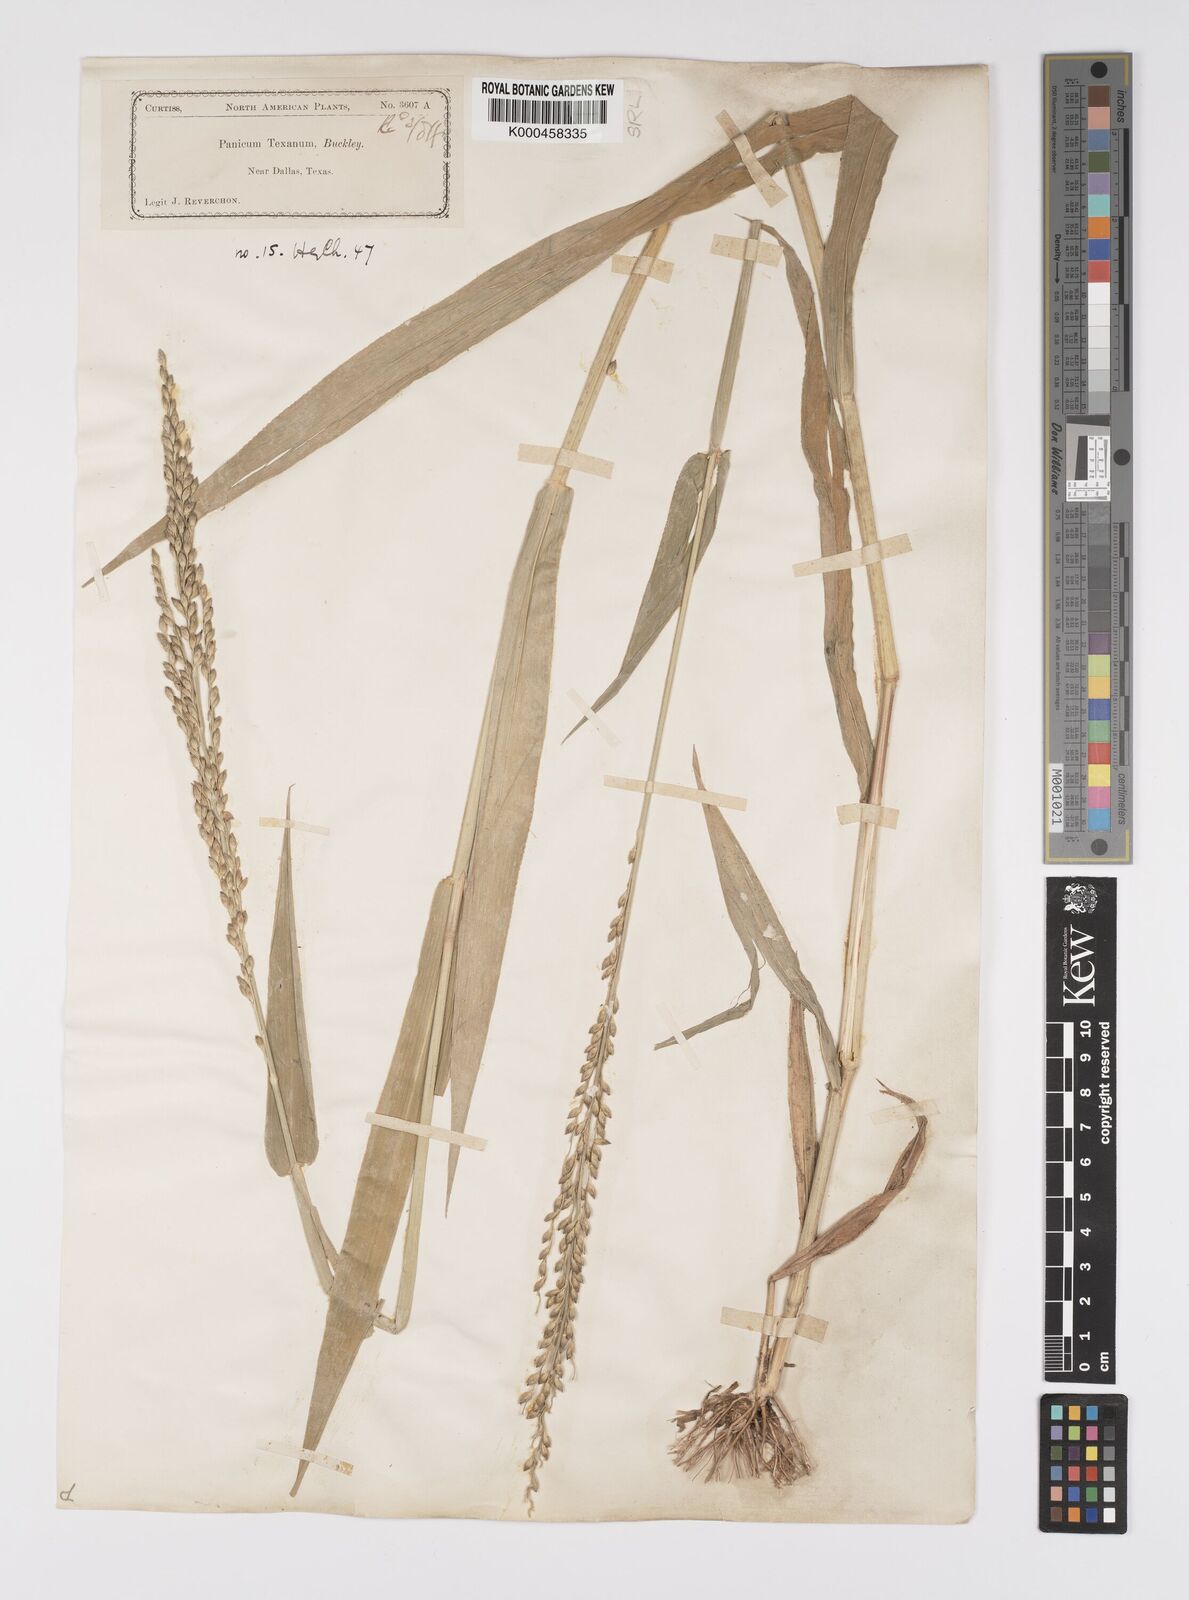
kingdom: Plantae
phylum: Tracheophyta
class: Liliopsida
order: Poales
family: Poaceae
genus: Urochloa
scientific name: Urochloa texana
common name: Texas millet
